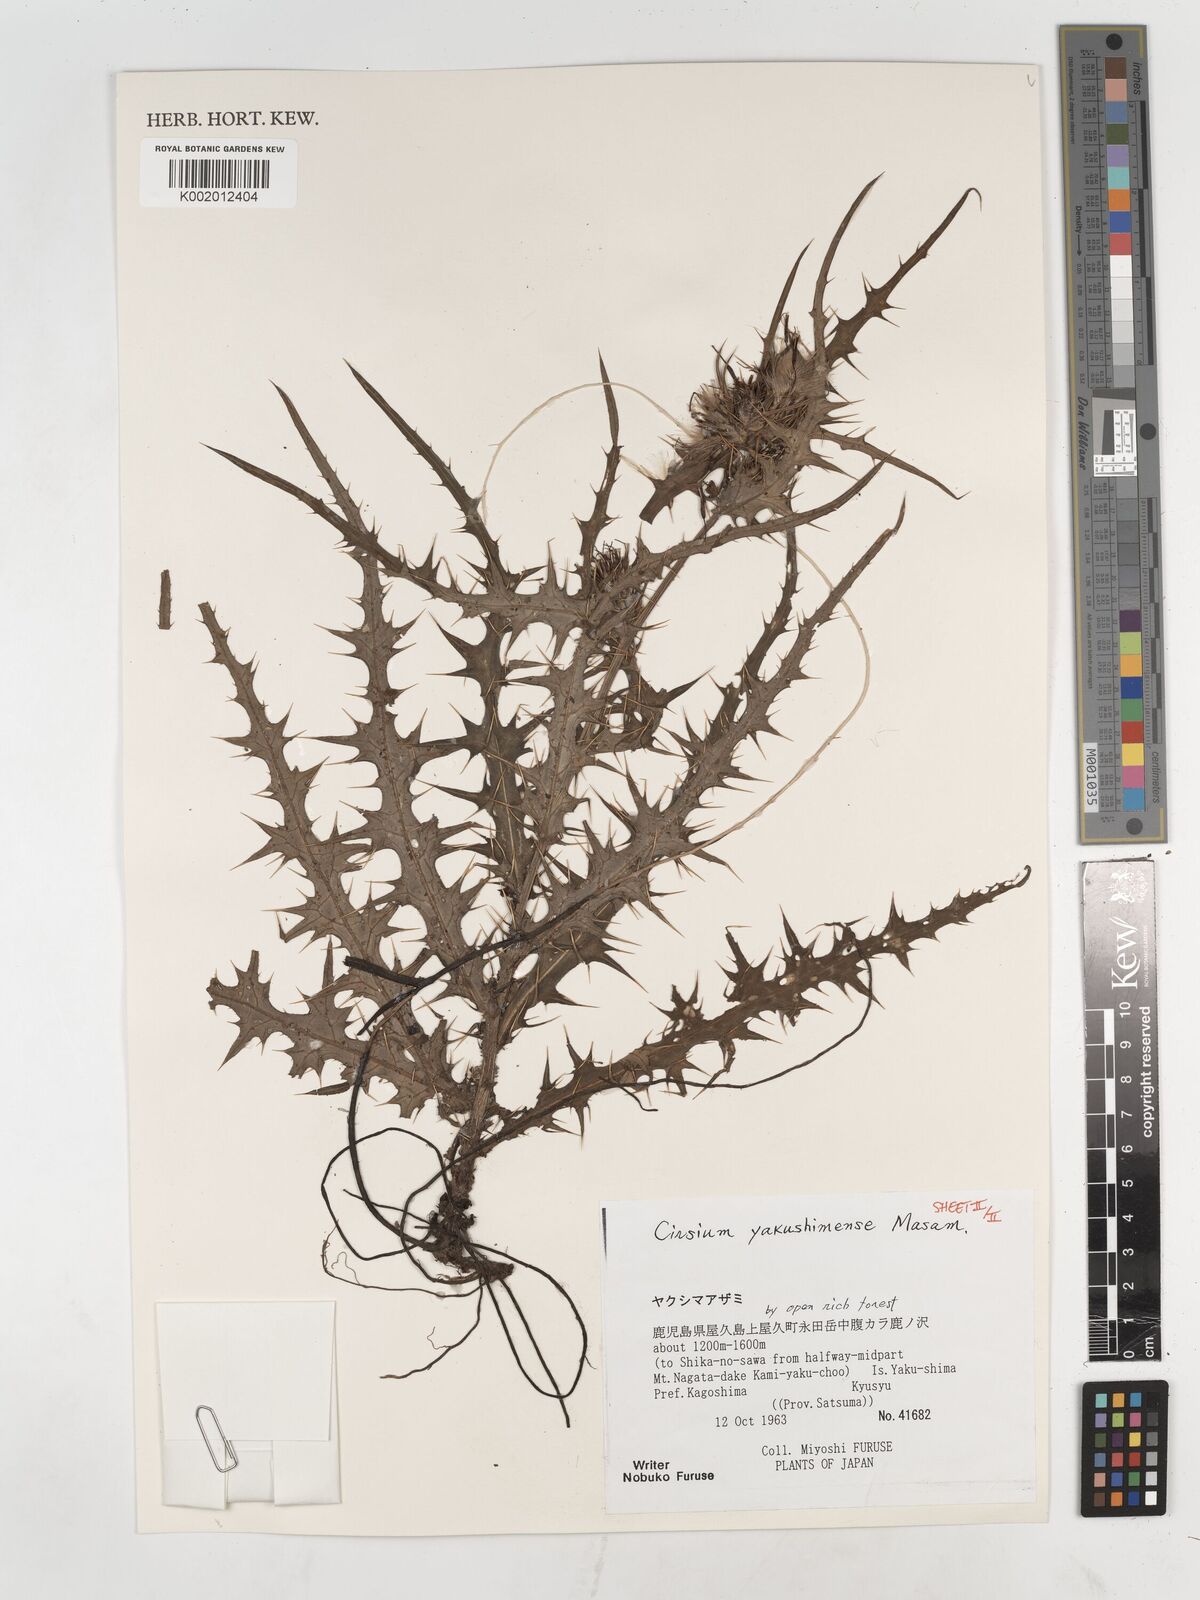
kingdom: Plantae
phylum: Tracheophyta
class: Magnoliopsida
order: Asterales
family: Asteraceae
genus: Cirsium
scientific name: Cirsium yakusimense
